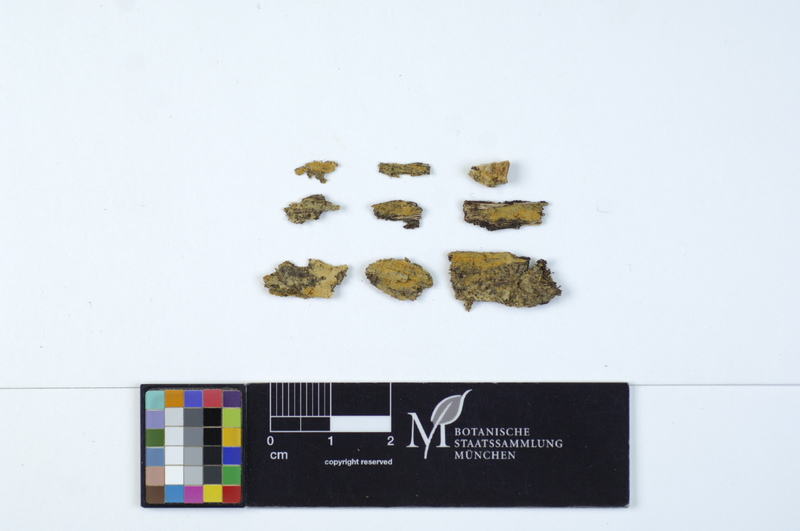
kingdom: Plantae
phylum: Tracheophyta
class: Magnoliopsida
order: Malpighiales
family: Salicaceae
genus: Populus
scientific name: Populus
